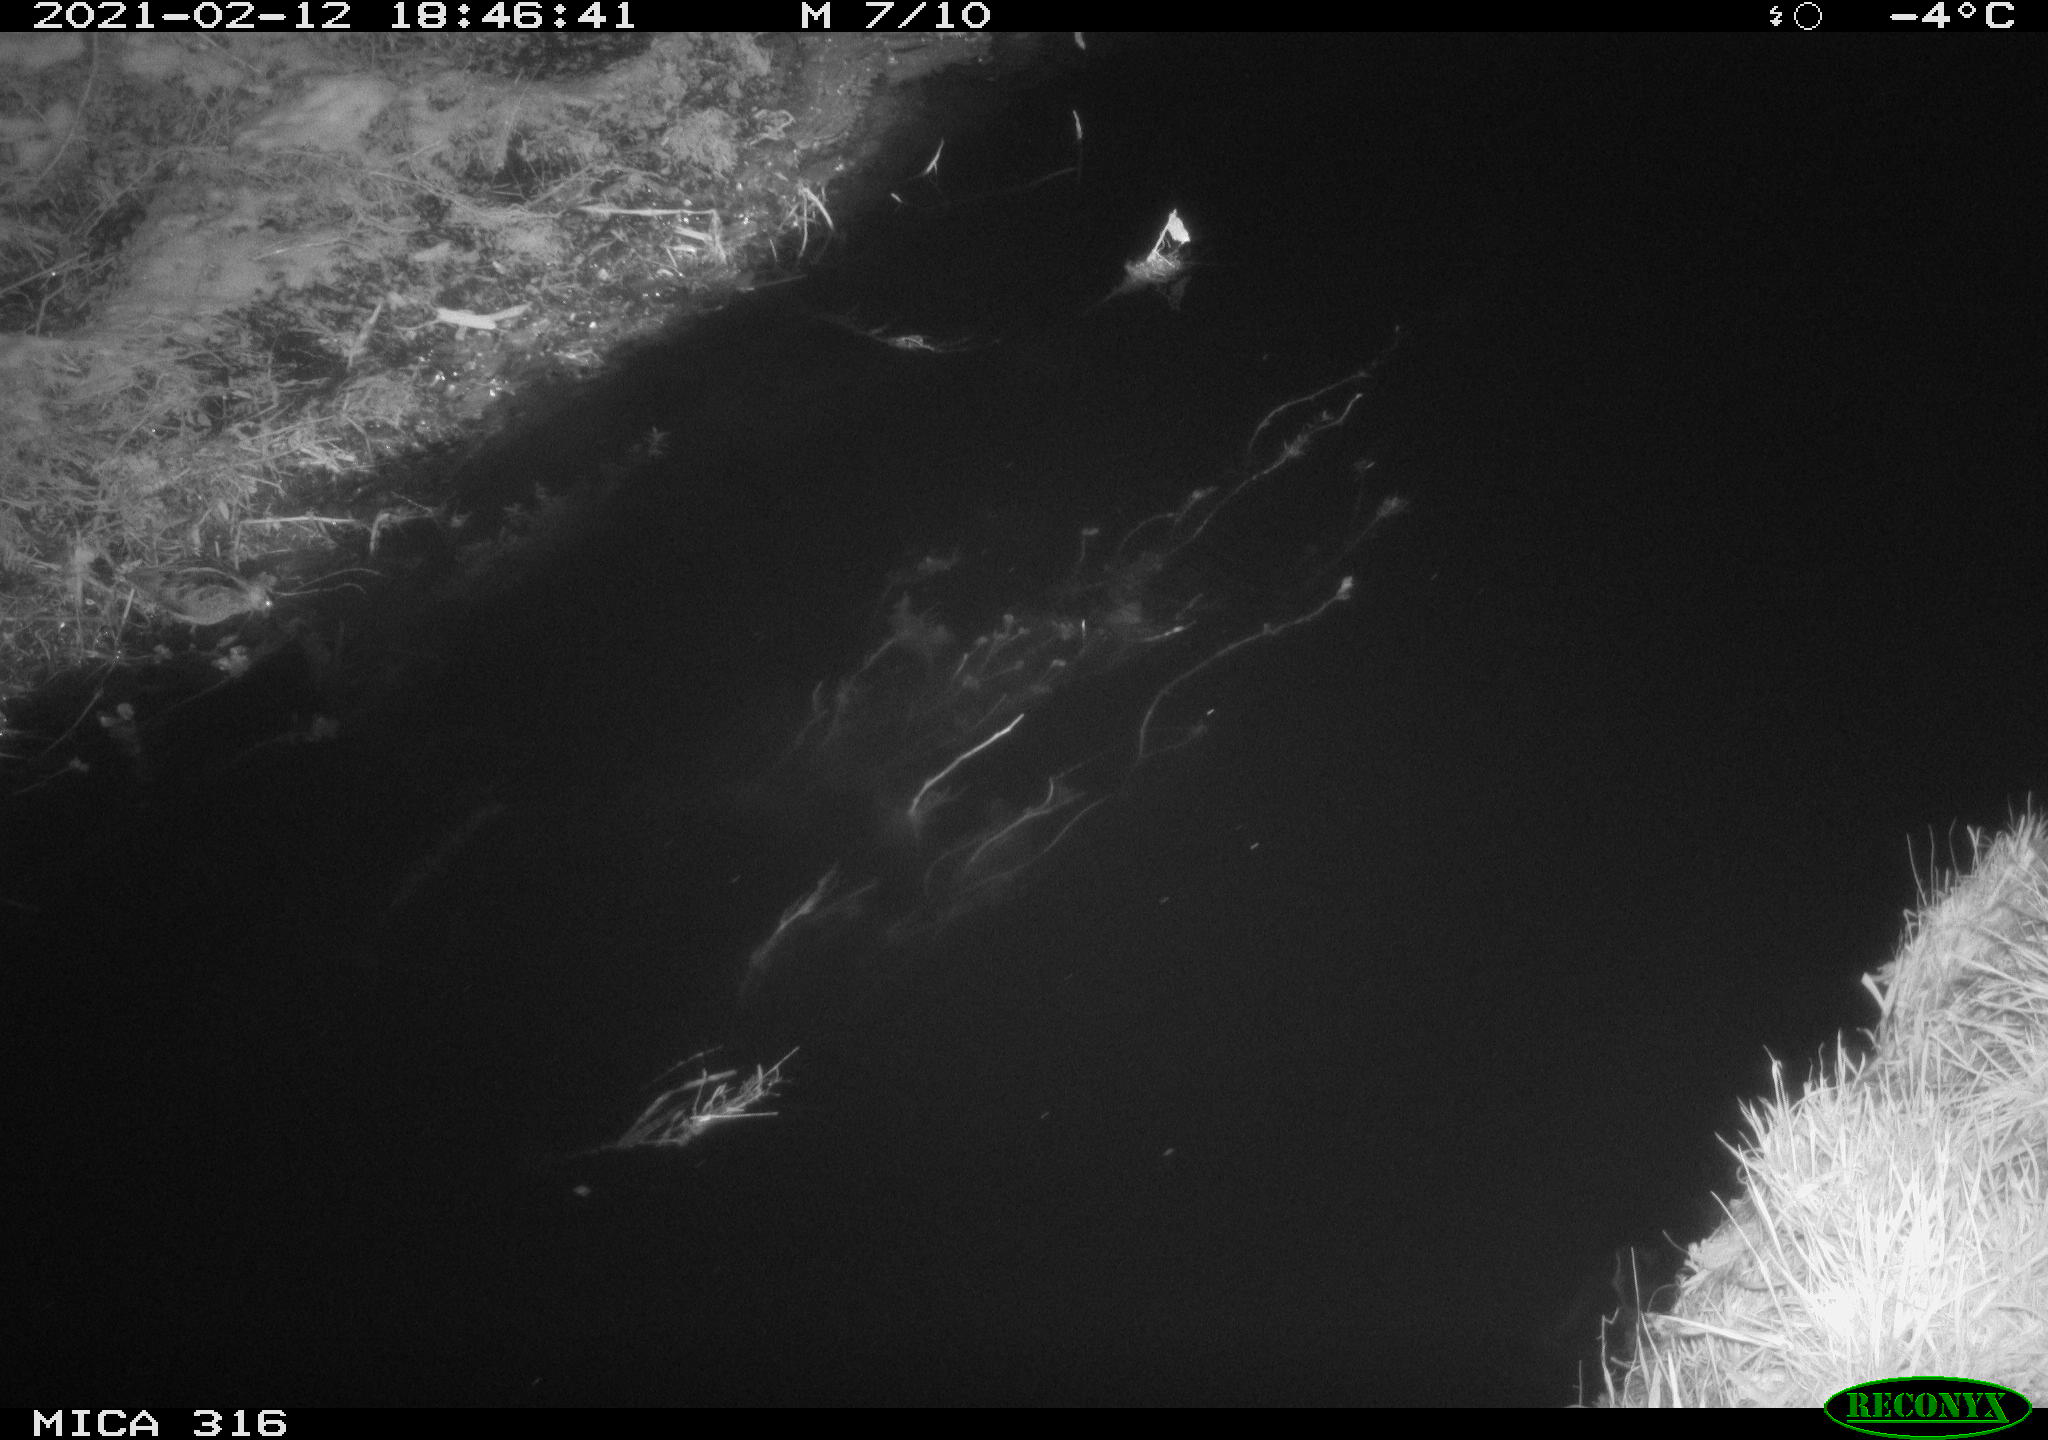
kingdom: Animalia
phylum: Chordata
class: Aves
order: Charadriiformes
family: Scolopacidae
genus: Gallinago
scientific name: Gallinago gallinago
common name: Common snipe
